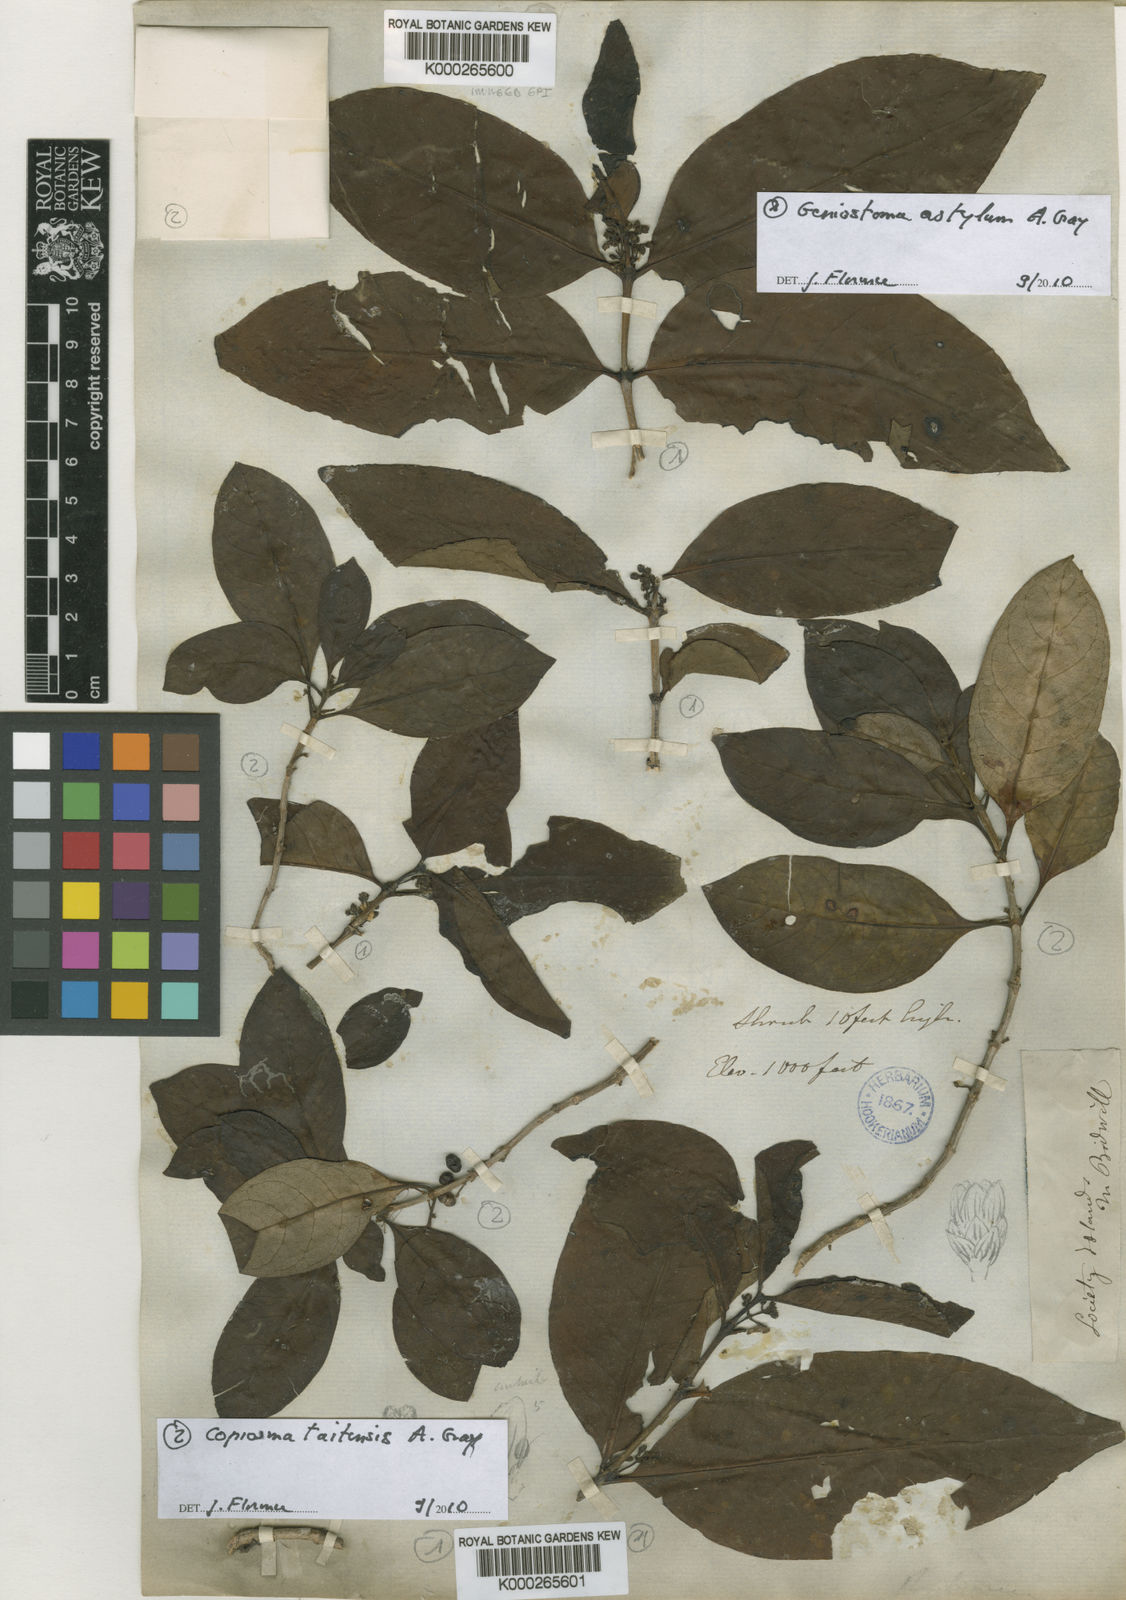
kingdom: Plantae
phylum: Tracheophyta
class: Magnoliopsida
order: Gentianales
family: Rubiaceae
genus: Coprosma
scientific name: Coprosma
